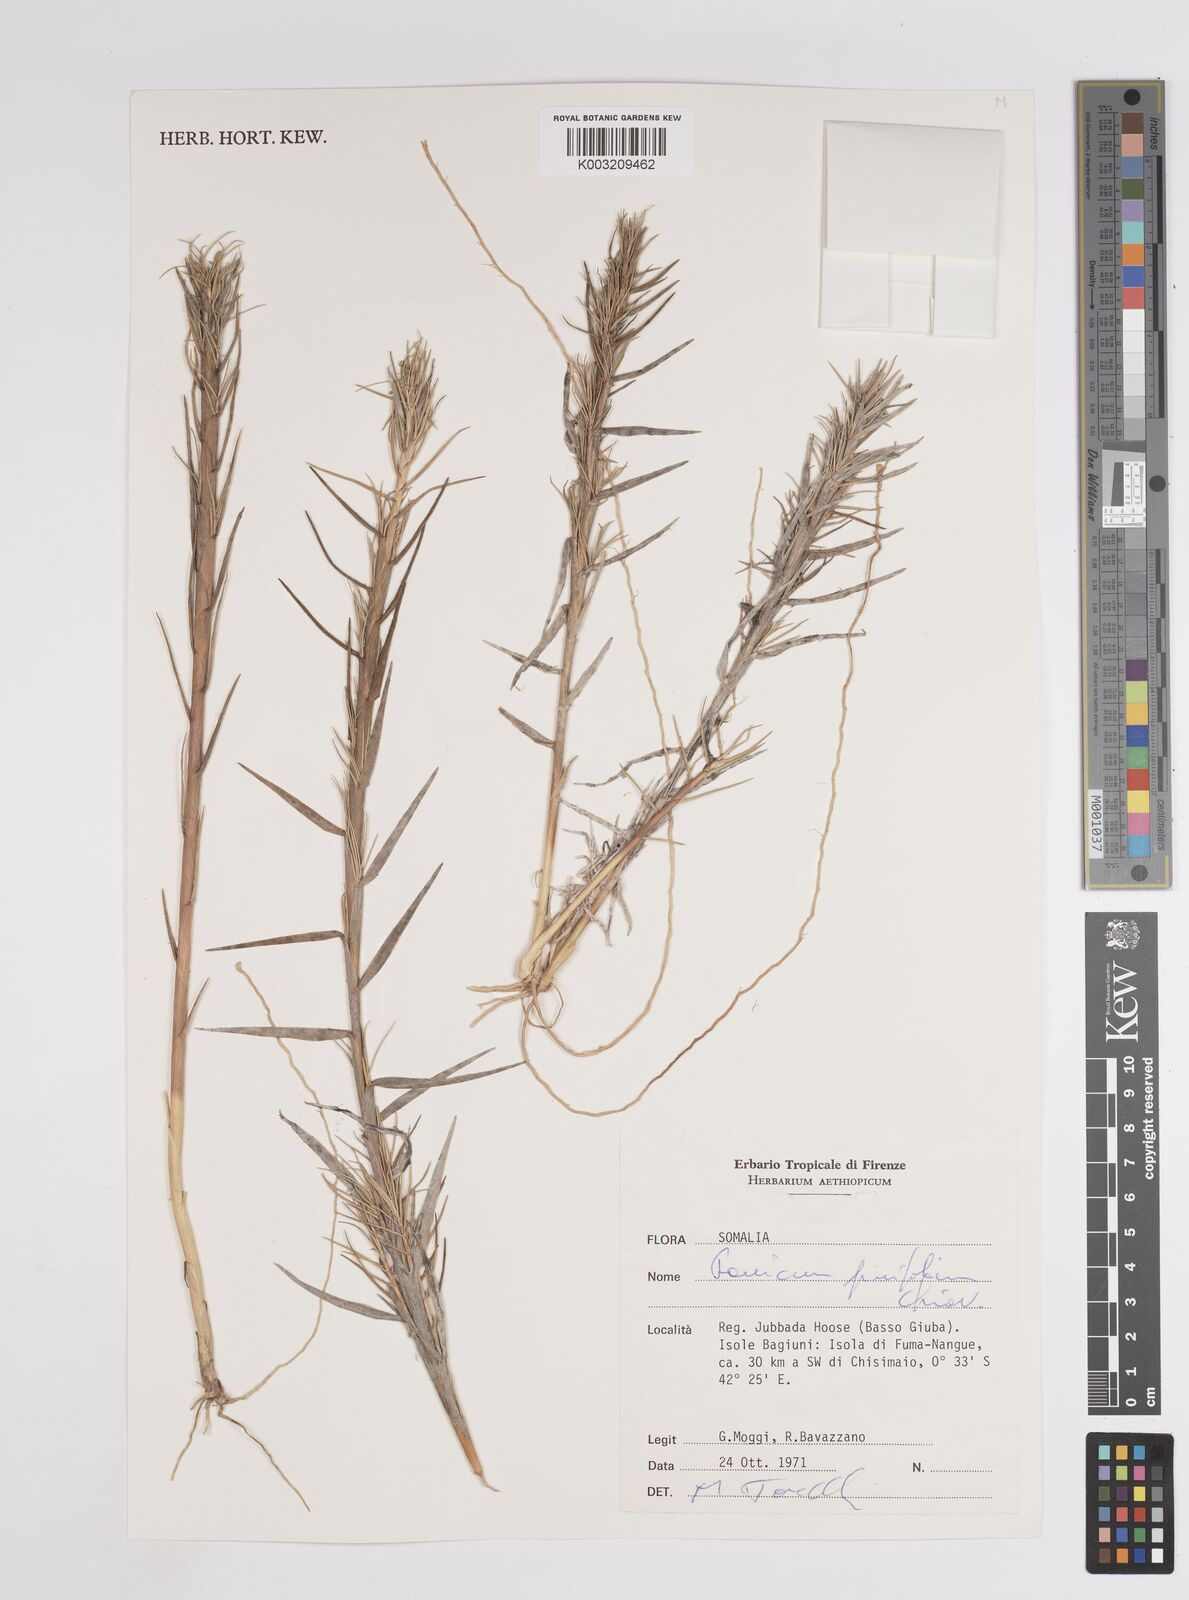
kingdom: Plantae
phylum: Tracheophyta
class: Liliopsida
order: Poales
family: Poaceae
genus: Panicum
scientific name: Panicum pinifolium
